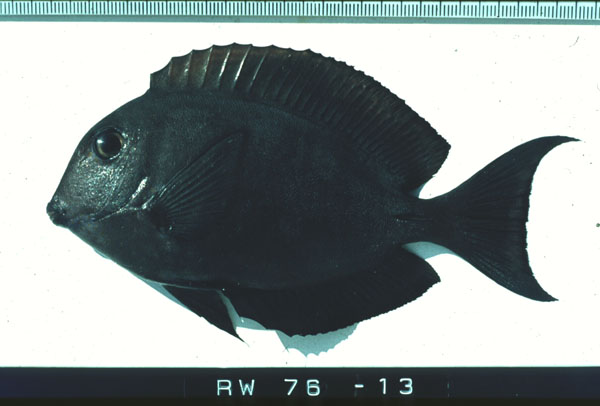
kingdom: Animalia
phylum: Chordata
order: Perciformes
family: Acanthuridae
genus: Ctenochaetus
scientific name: Ctenochaetus
